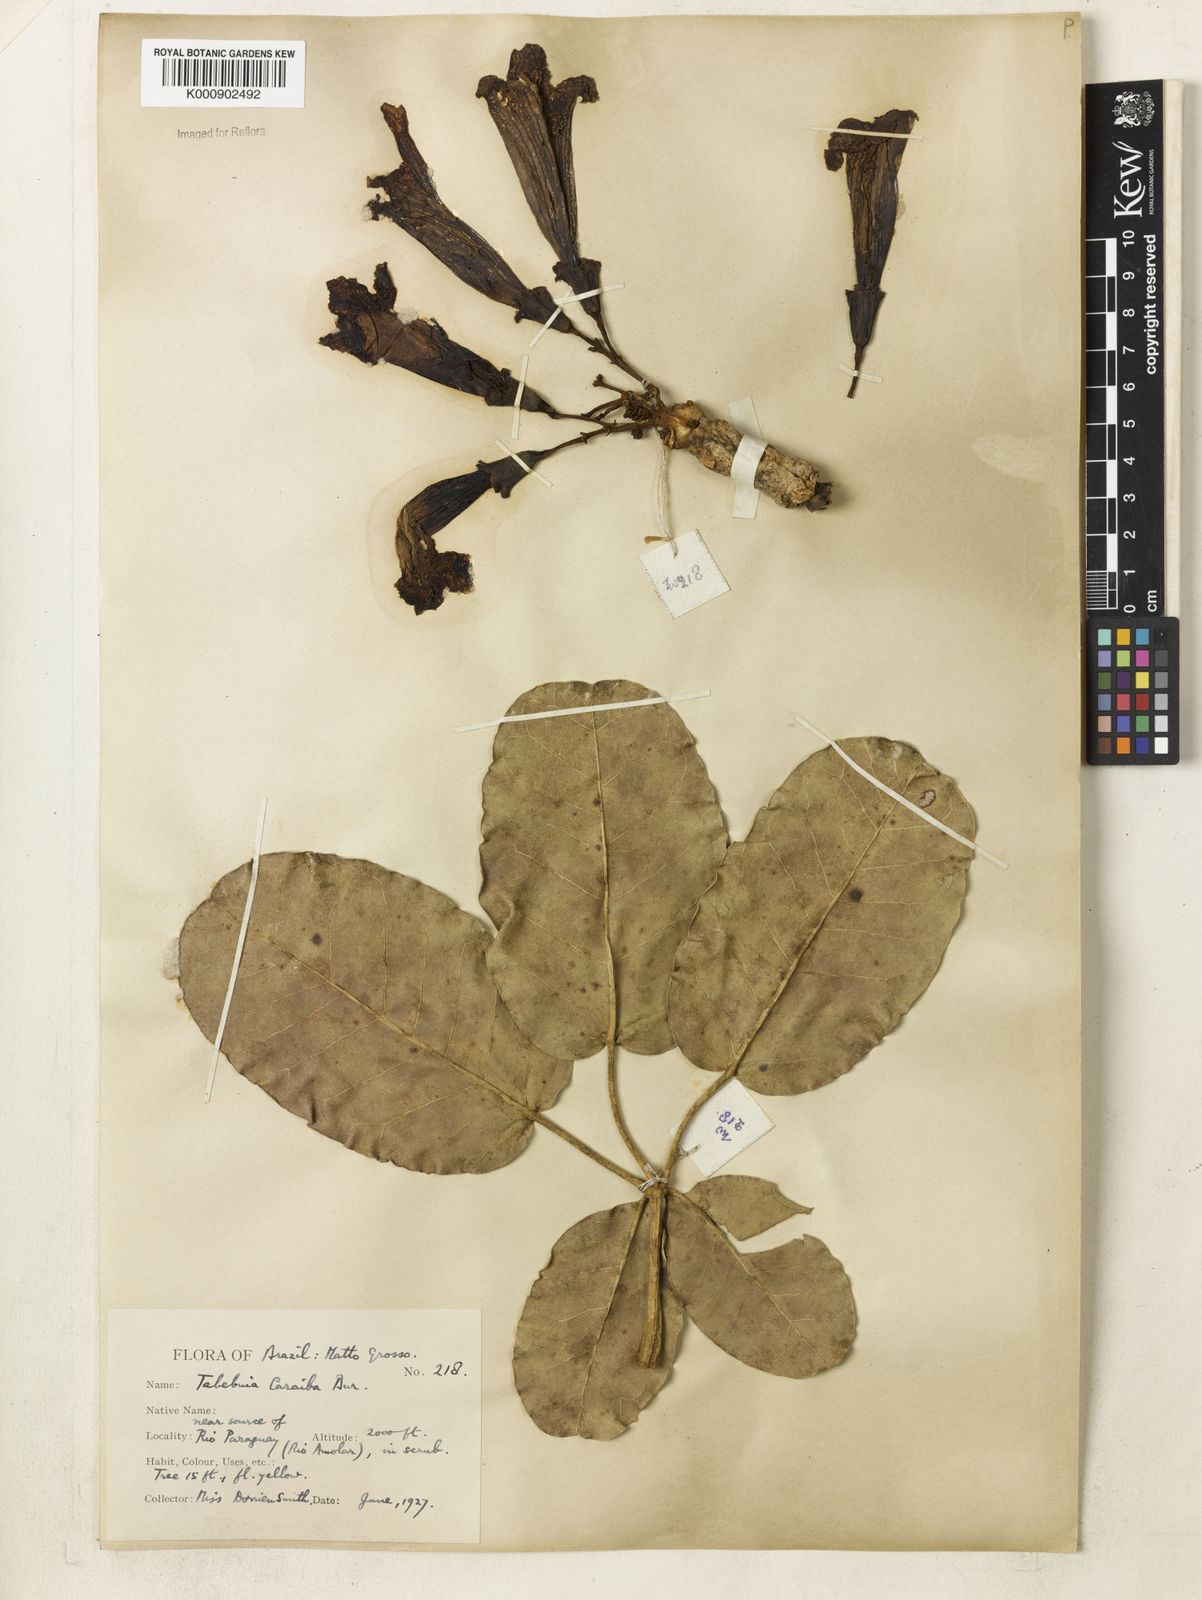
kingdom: Plantae
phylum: Tracheophyta
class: Magnoliopsida
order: Lamiales
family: Bignoniaceae
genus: Tabebuia
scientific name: Tabebuia aurea
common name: Caribbean trumpet-tree
